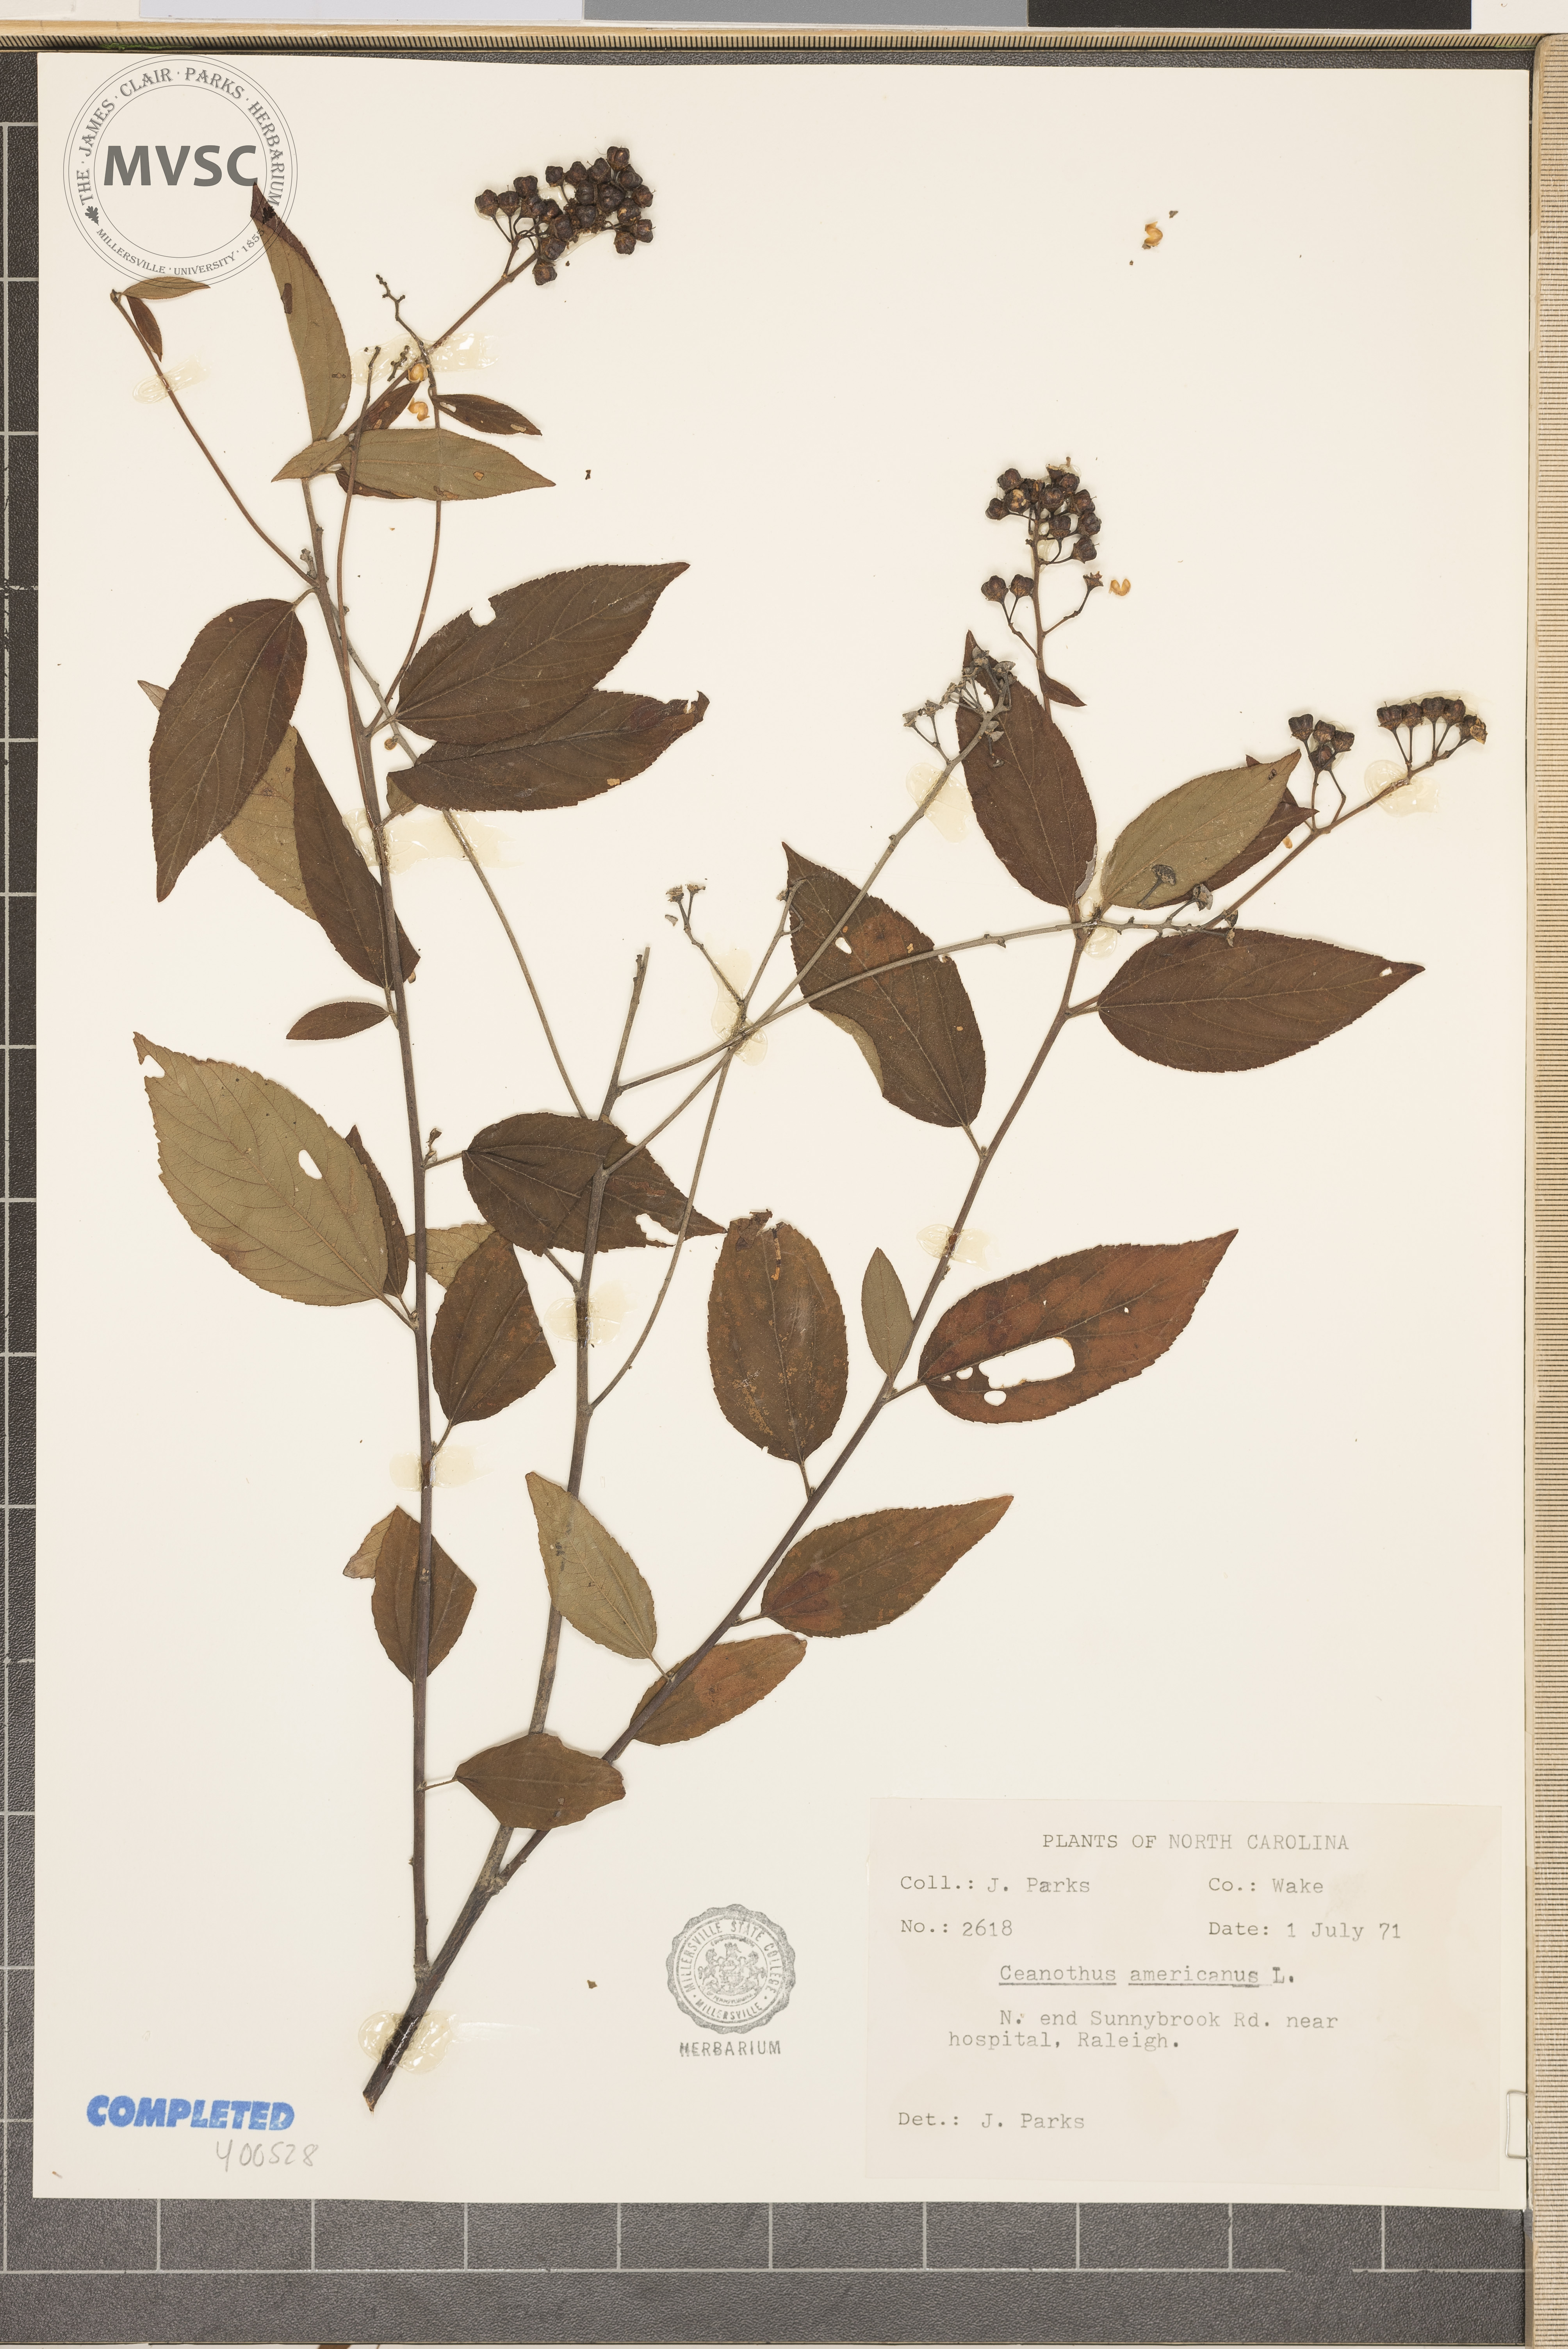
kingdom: Plantae
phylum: Tracheophyta
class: Magnoliopsida
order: Rosales
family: Rhamnaceae
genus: Ceanothus
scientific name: Ceanothus americanus
